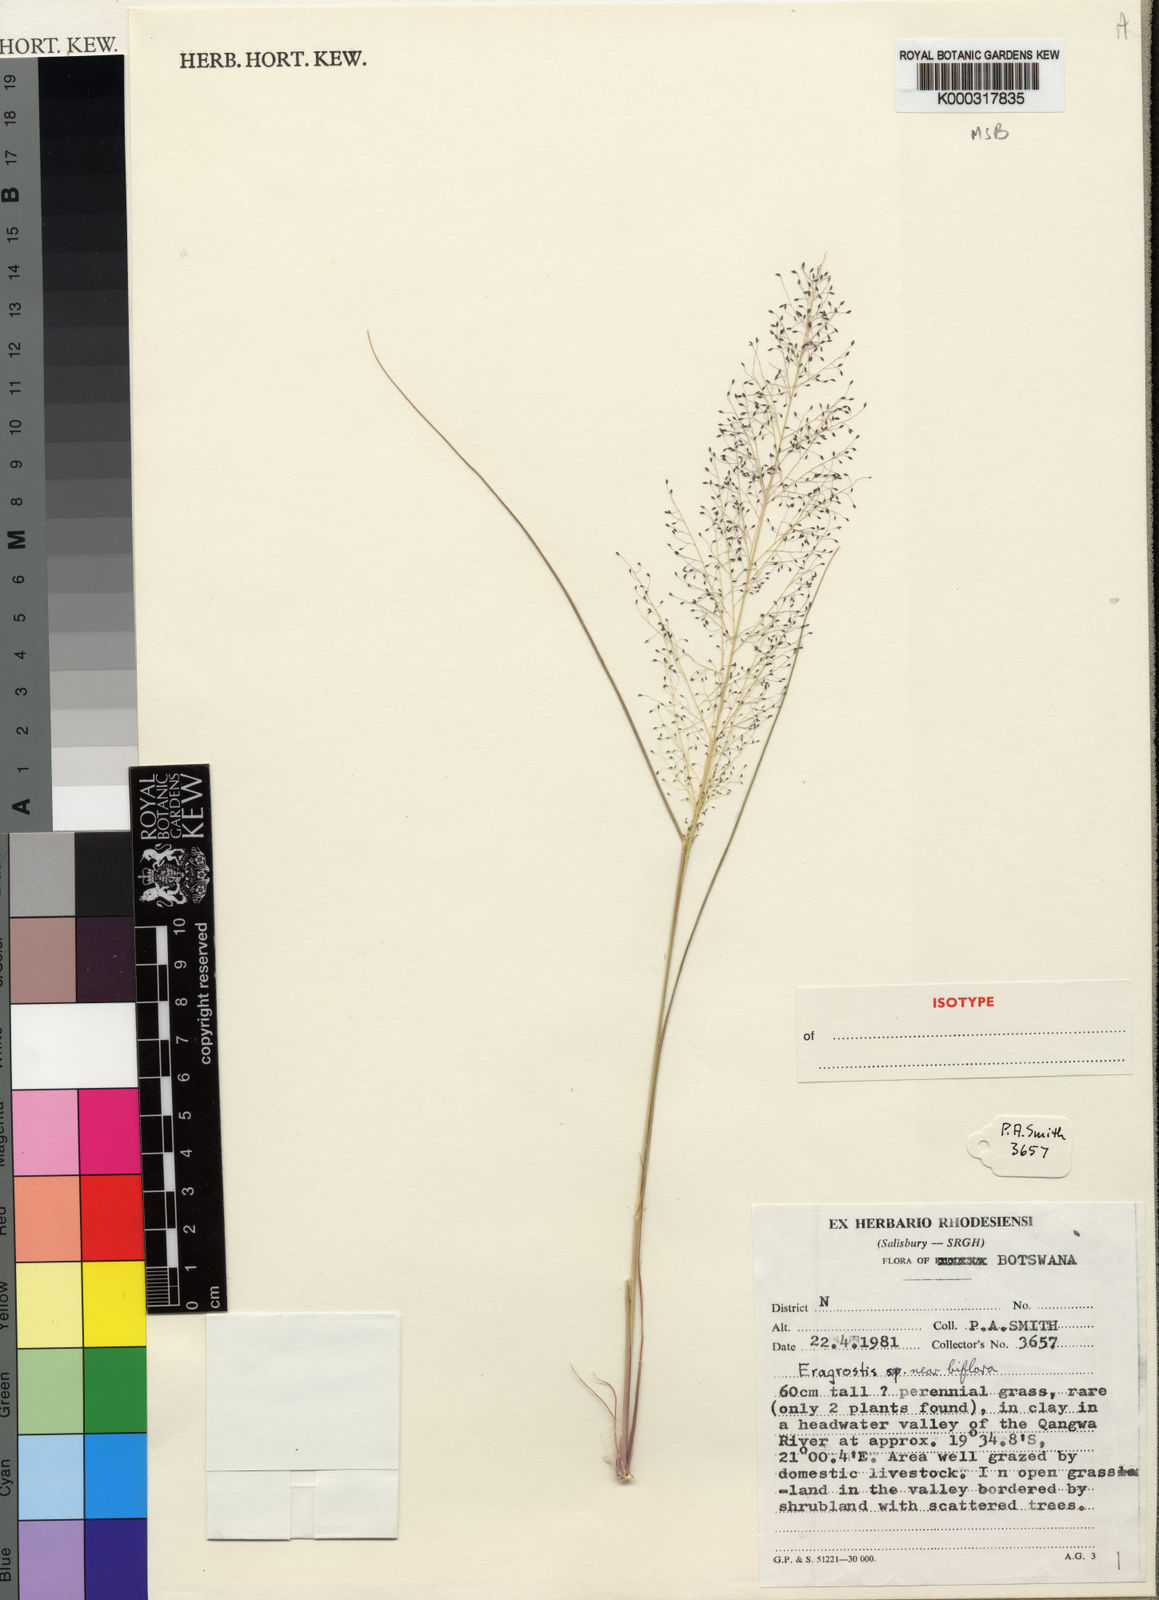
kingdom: Plantae
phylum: Tracheophyta
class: Liliopsida
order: Poales
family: Poaceae
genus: Eragrostis
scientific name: Eragrostis leptotricha
